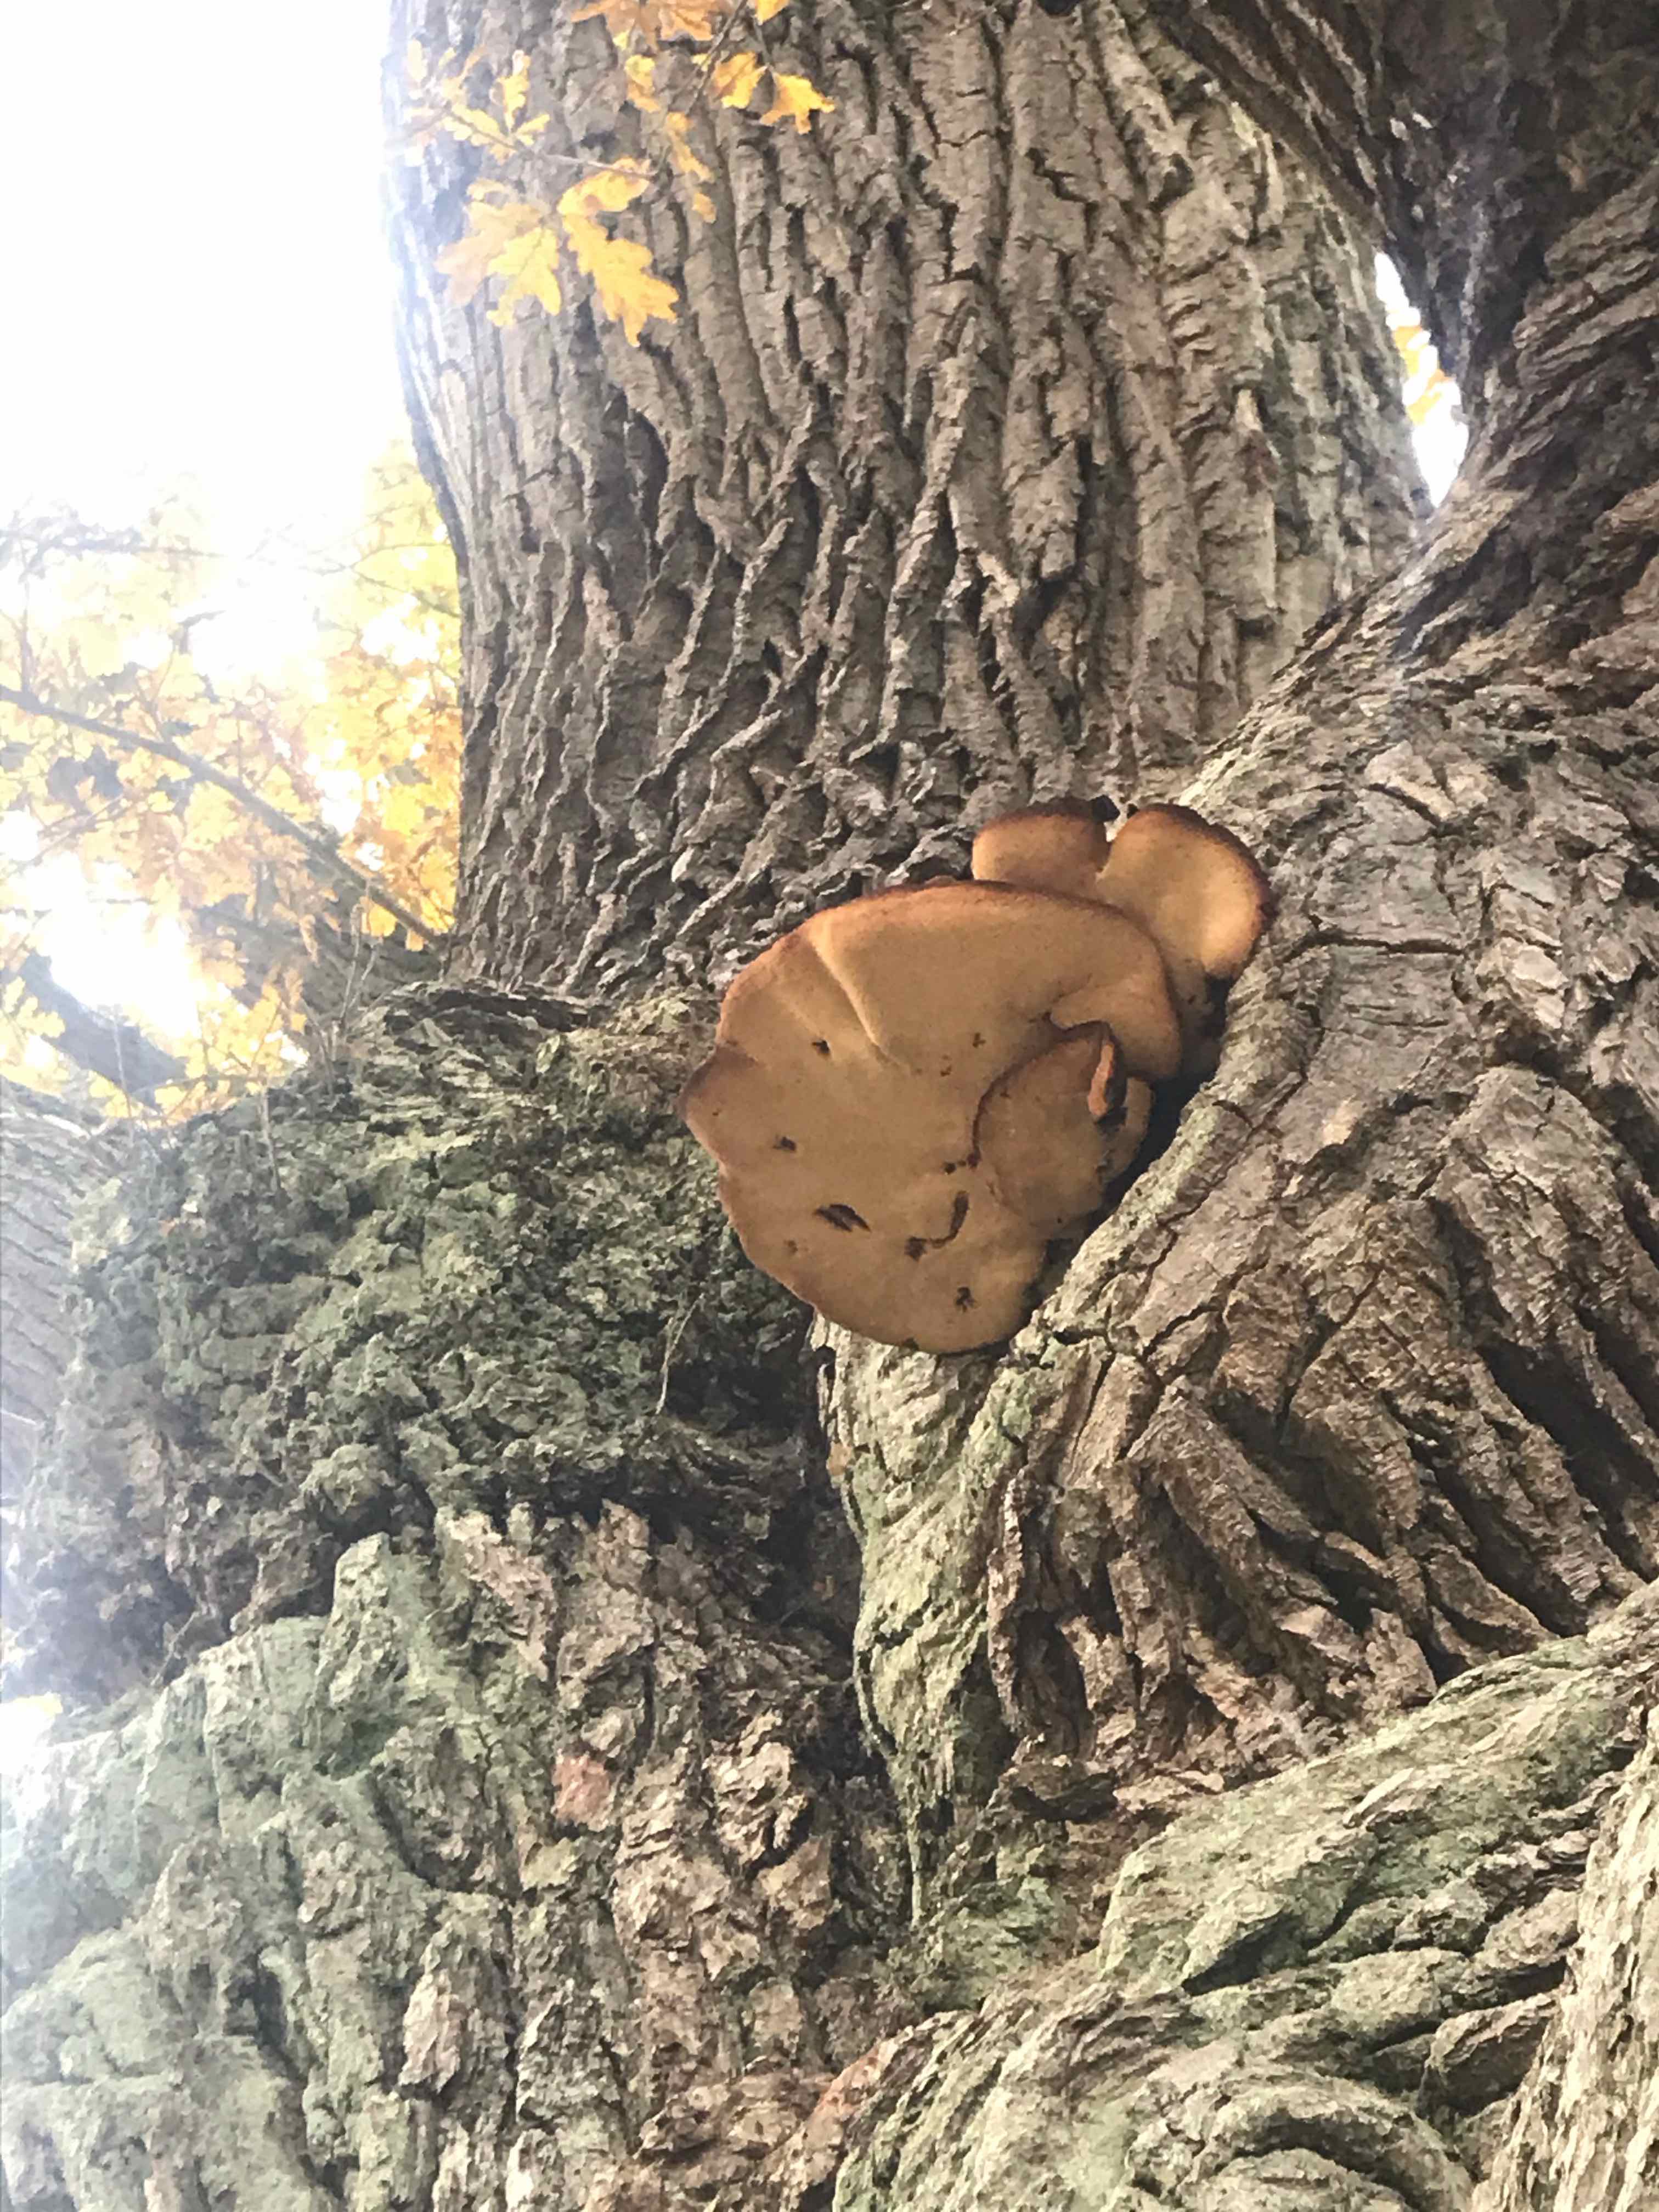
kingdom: Fungi
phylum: Basidiomycota
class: Agaricomycetes
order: Agaricales
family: Fistulinaceae
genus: Fistulina
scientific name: Fistulina hepatica
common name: oksetunge
